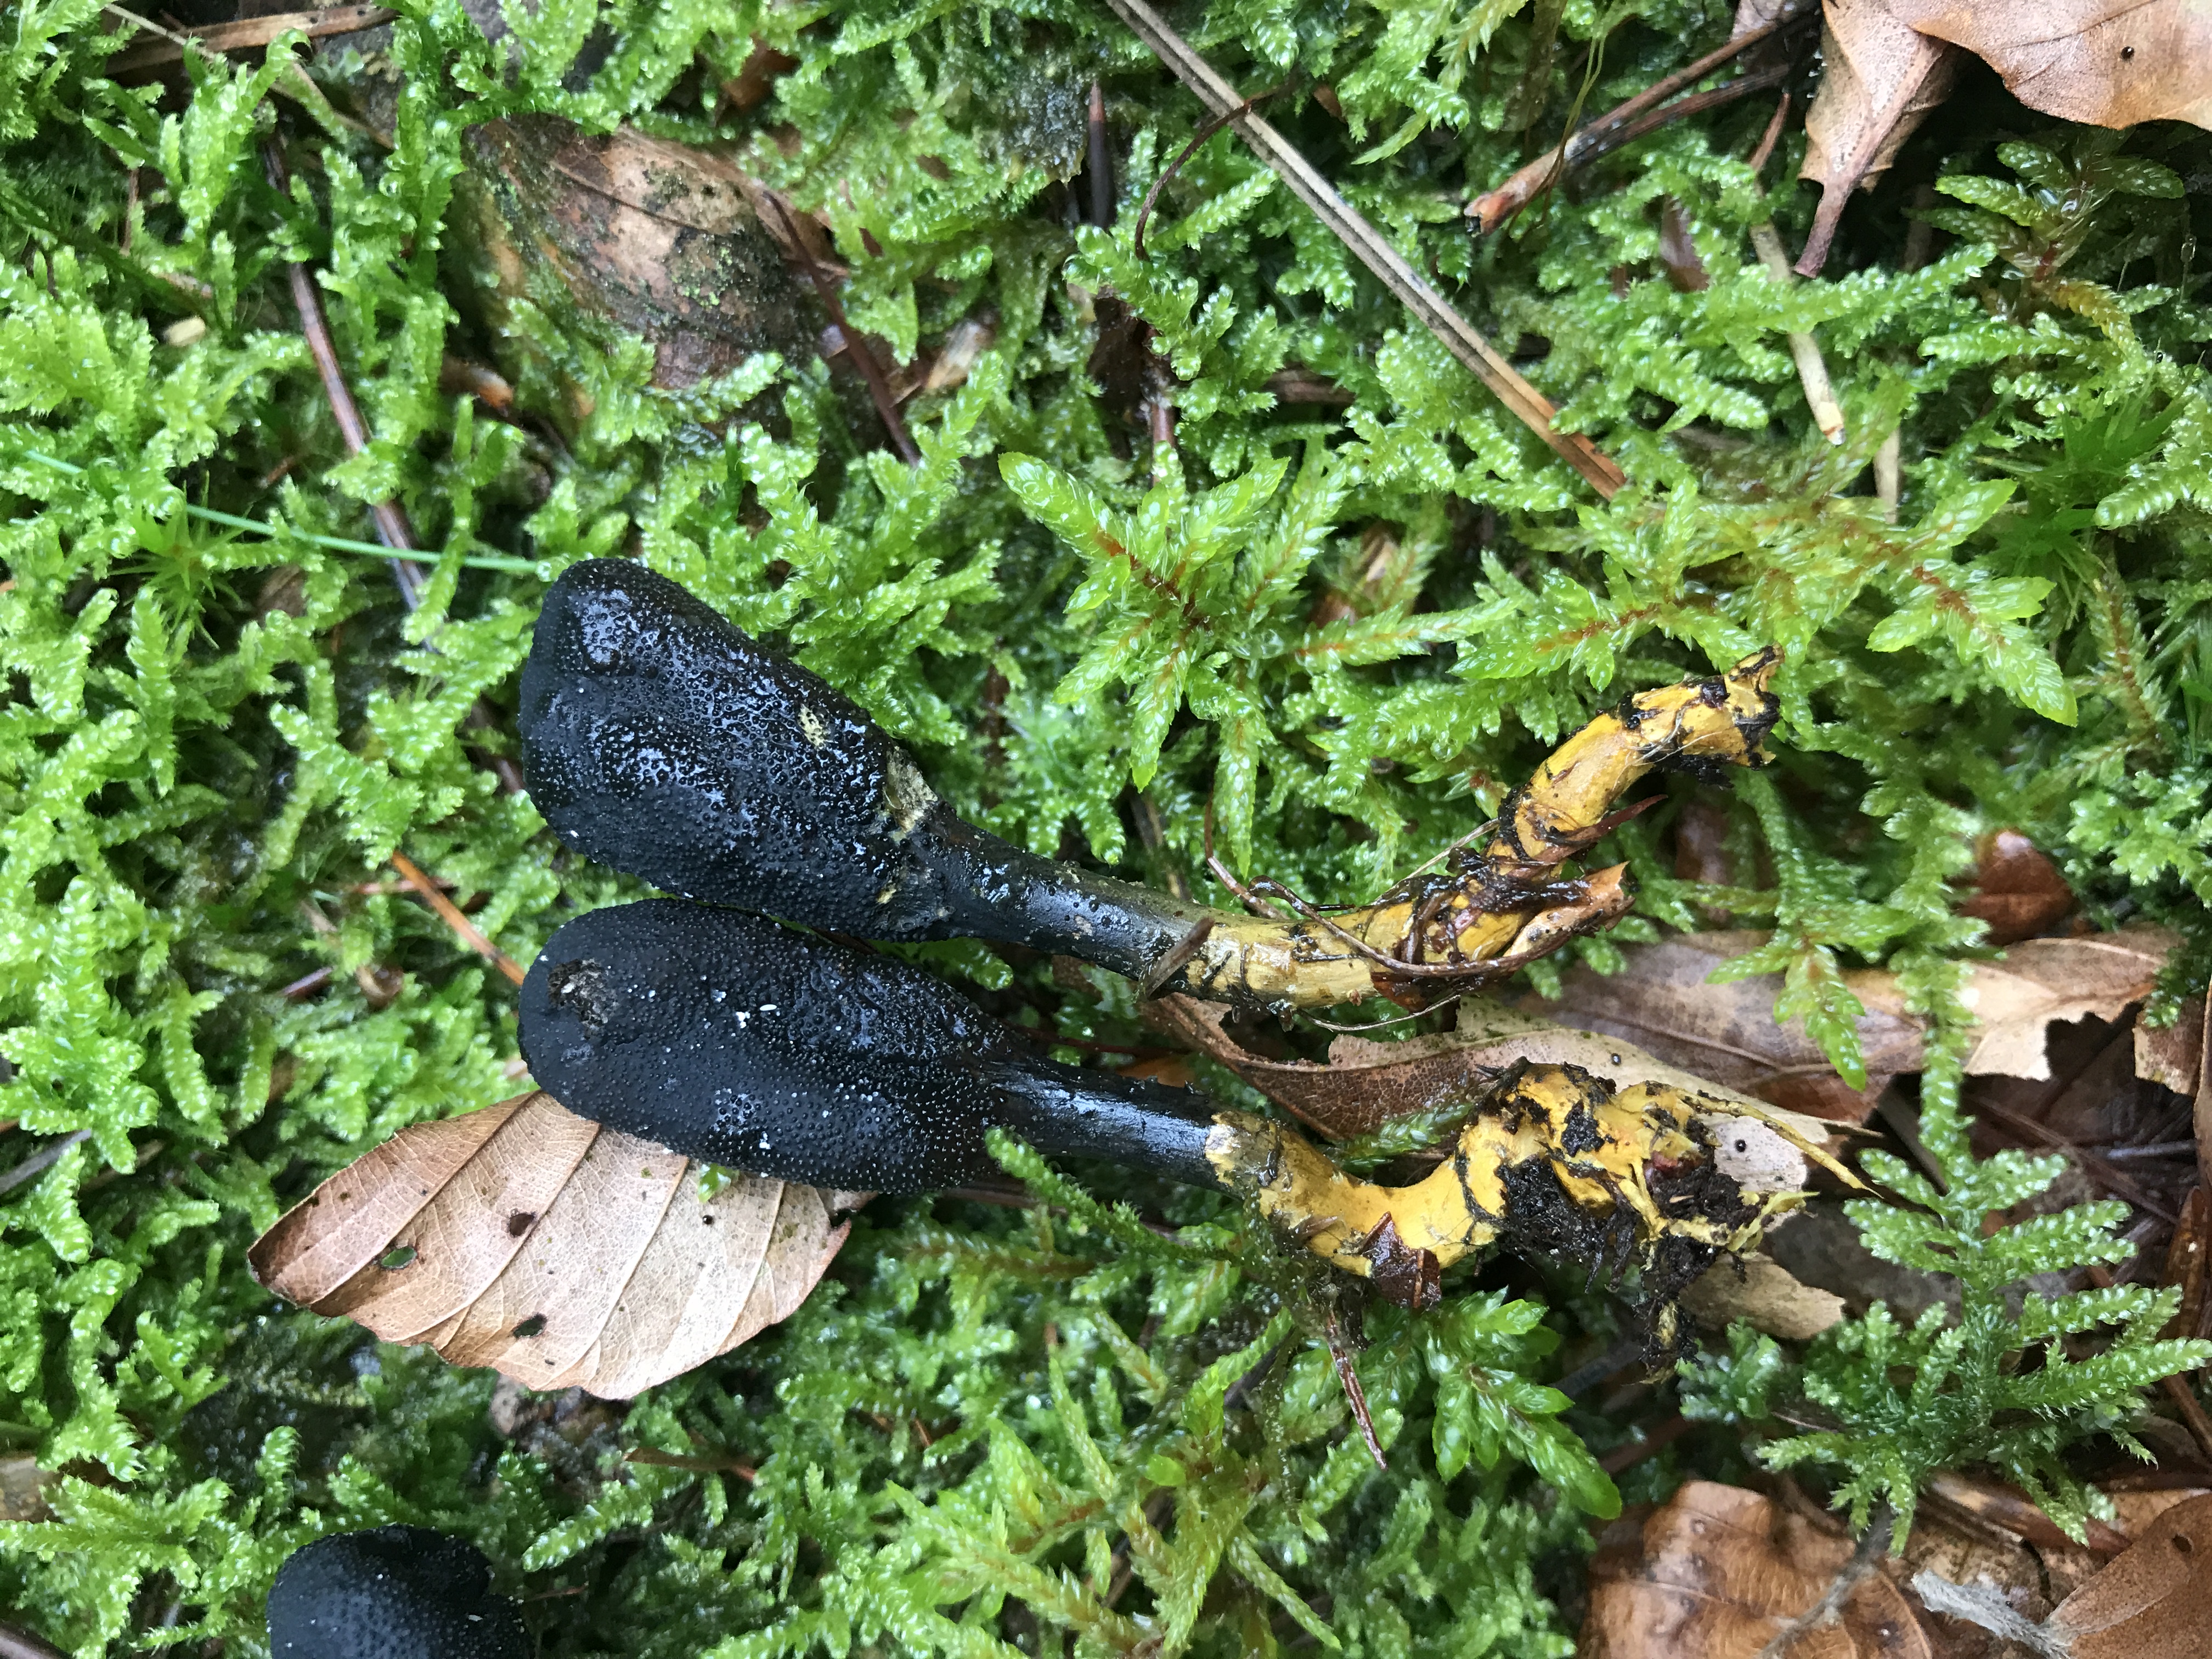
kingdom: Fungi
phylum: Ascomycota
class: Sordariomycetes
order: Hypocreales
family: Ophiocordycipitaceae
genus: Tolypocladium
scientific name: Tolypocladium ophioglossoides
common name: slank snyltekølle
